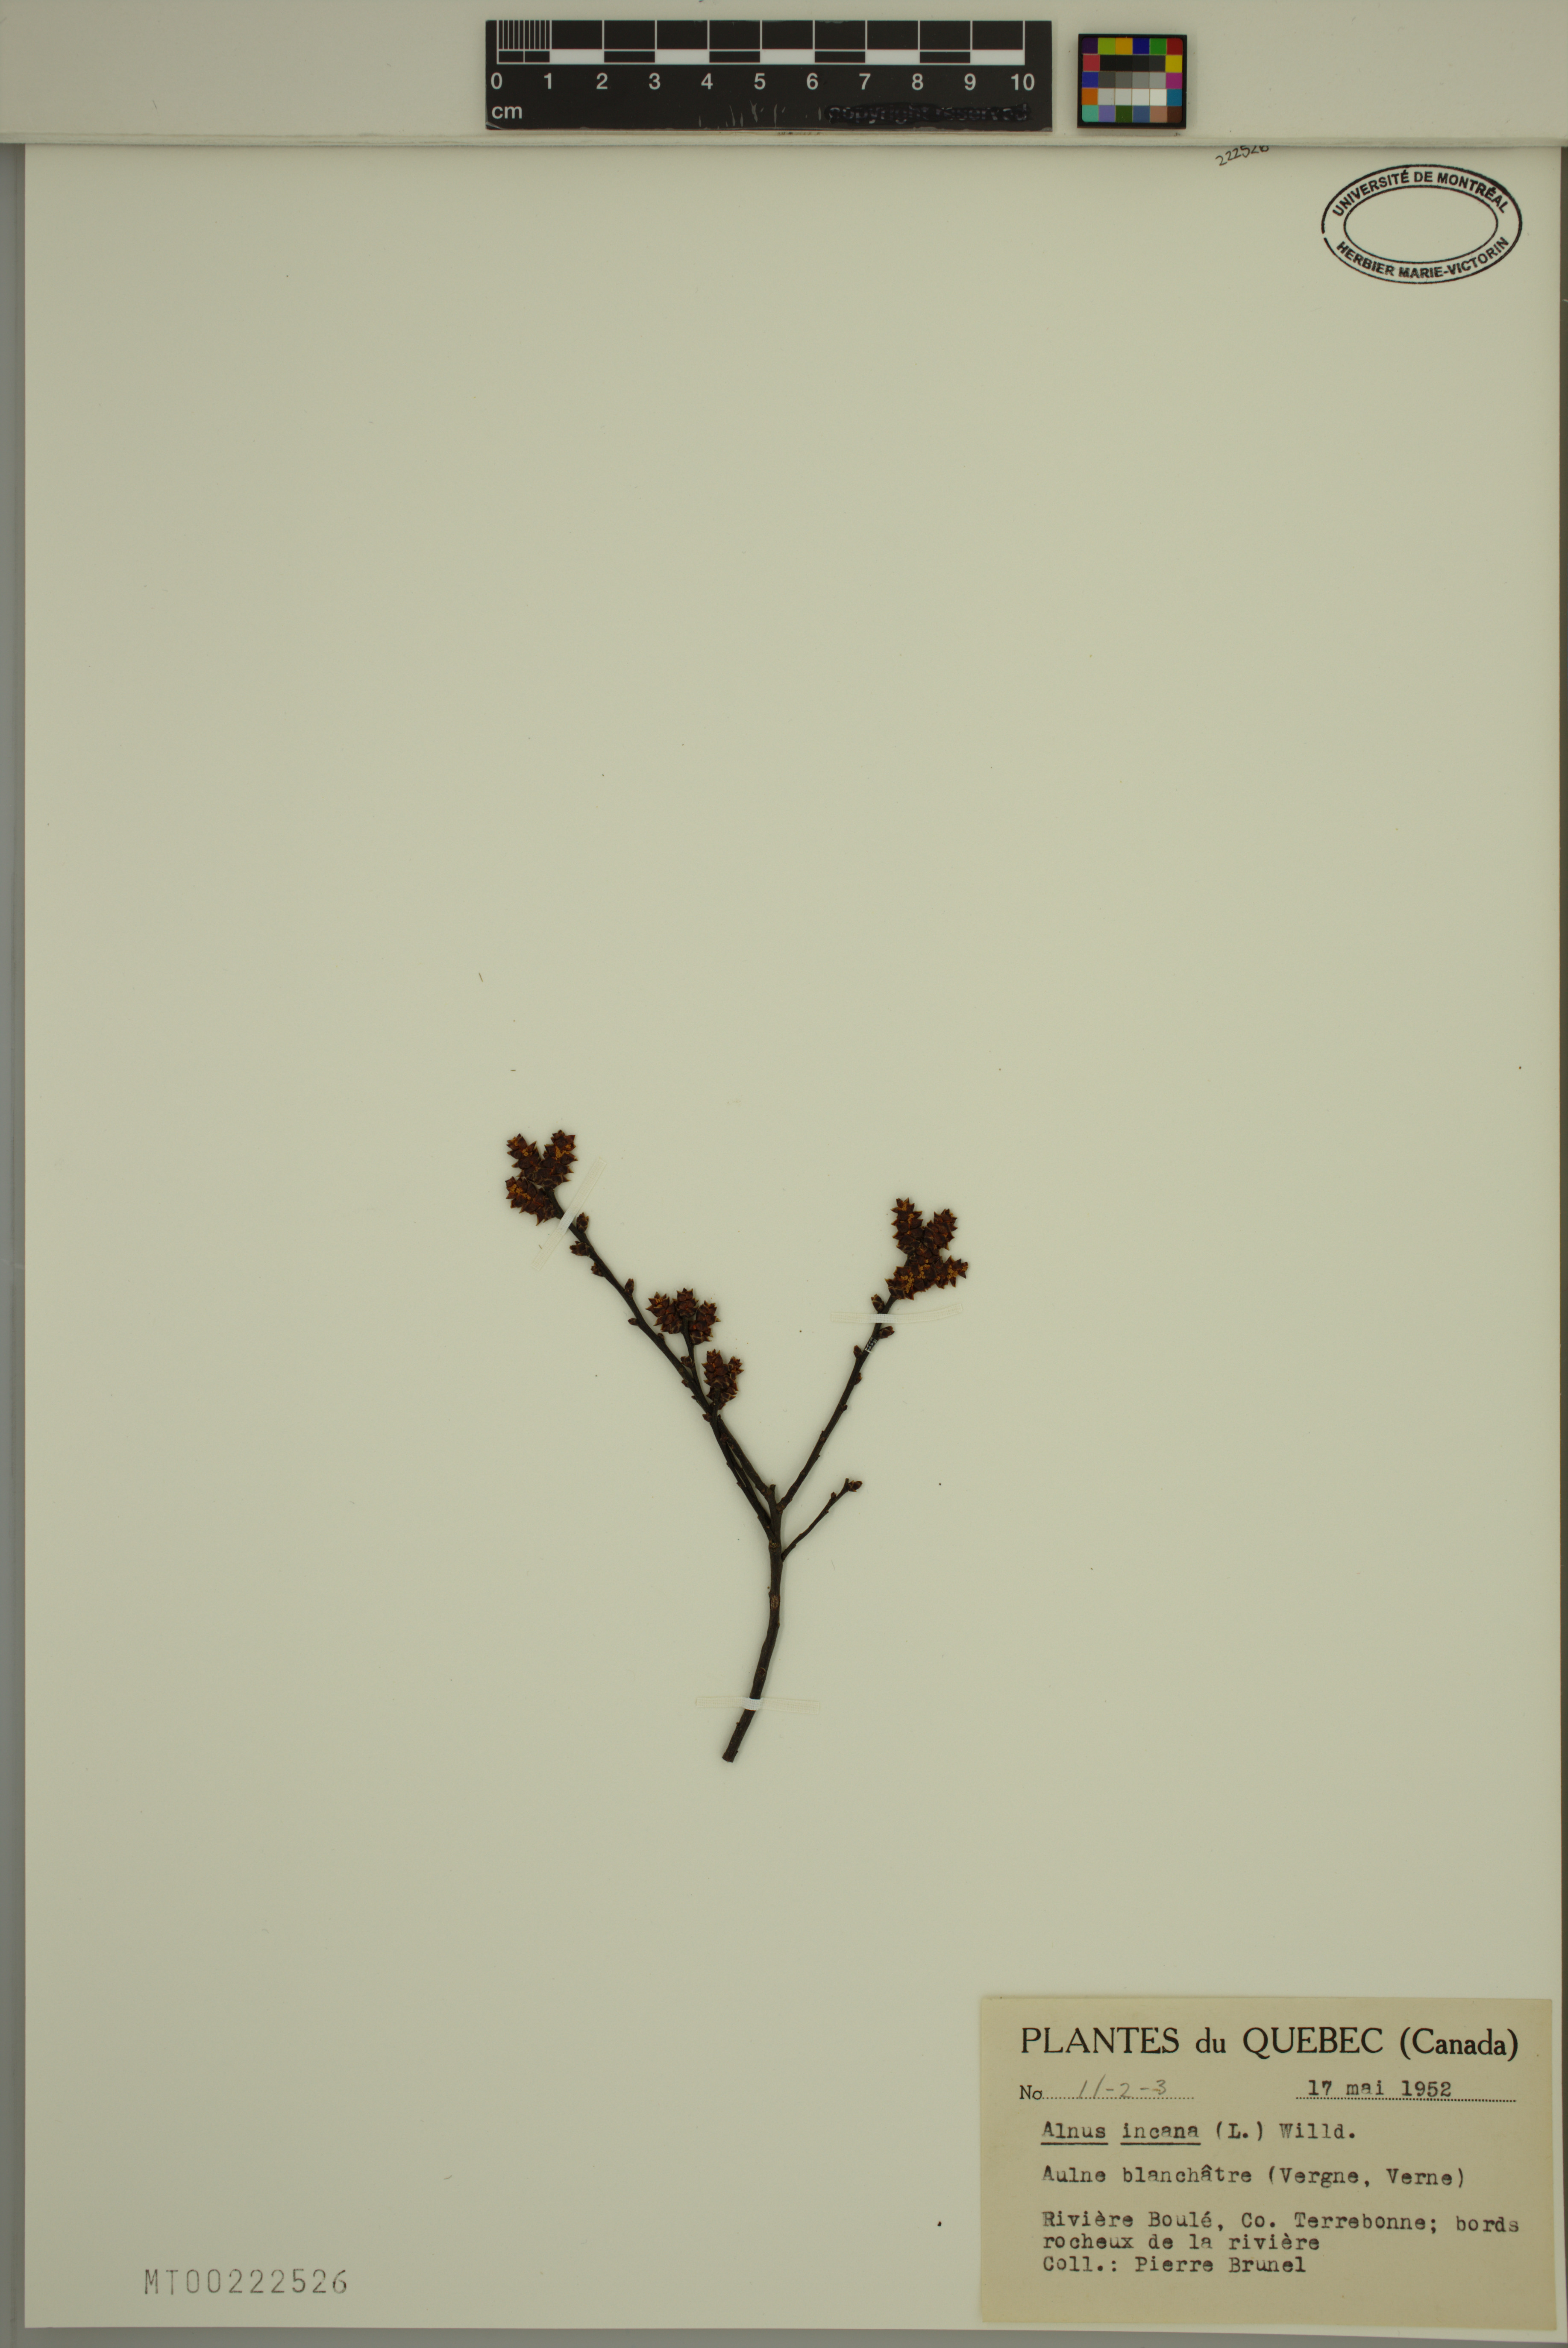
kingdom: Plantae
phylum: Tracheophyta
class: Magnoliopsida
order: Fagales
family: Betulaceae
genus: Alnus
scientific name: Alnus incana
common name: Grey alder
